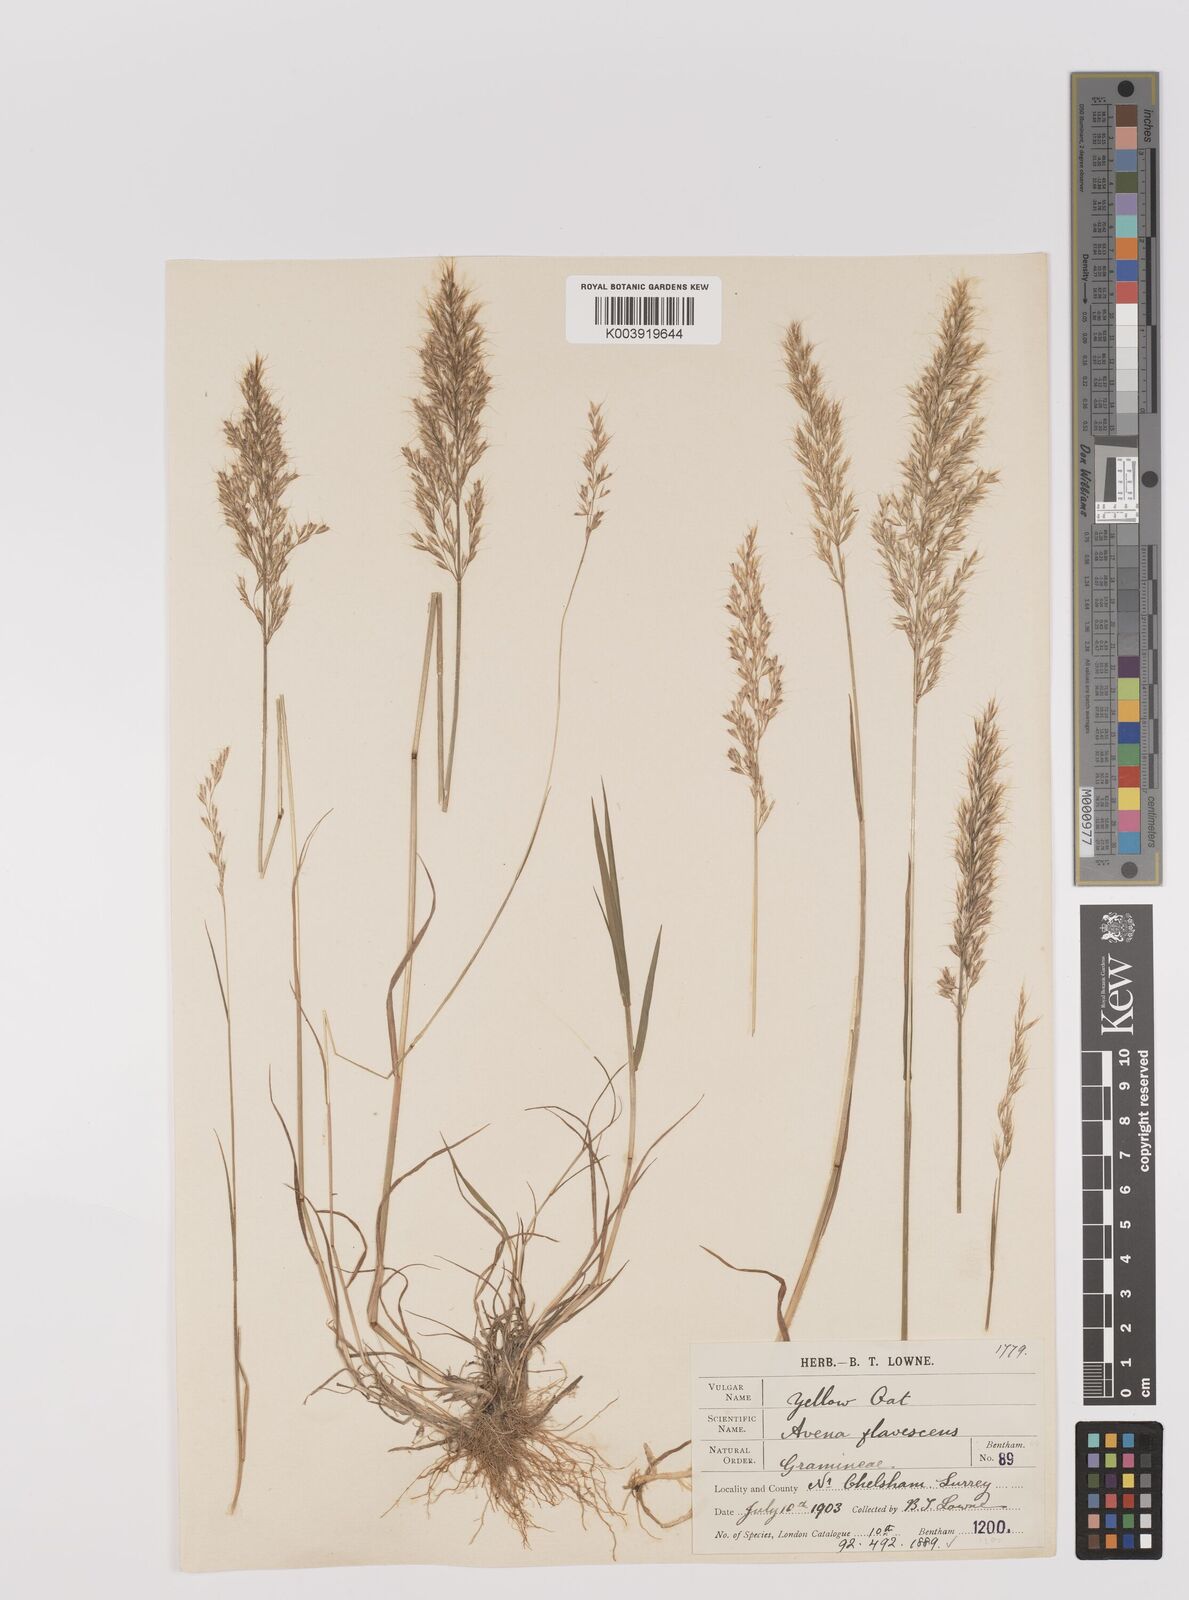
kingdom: Plantae
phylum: Tracheophyta
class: Liliopsida
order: Poales
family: Poaceae
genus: Trisetum
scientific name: Trisetum flavescens
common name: Yellow oat-grass
